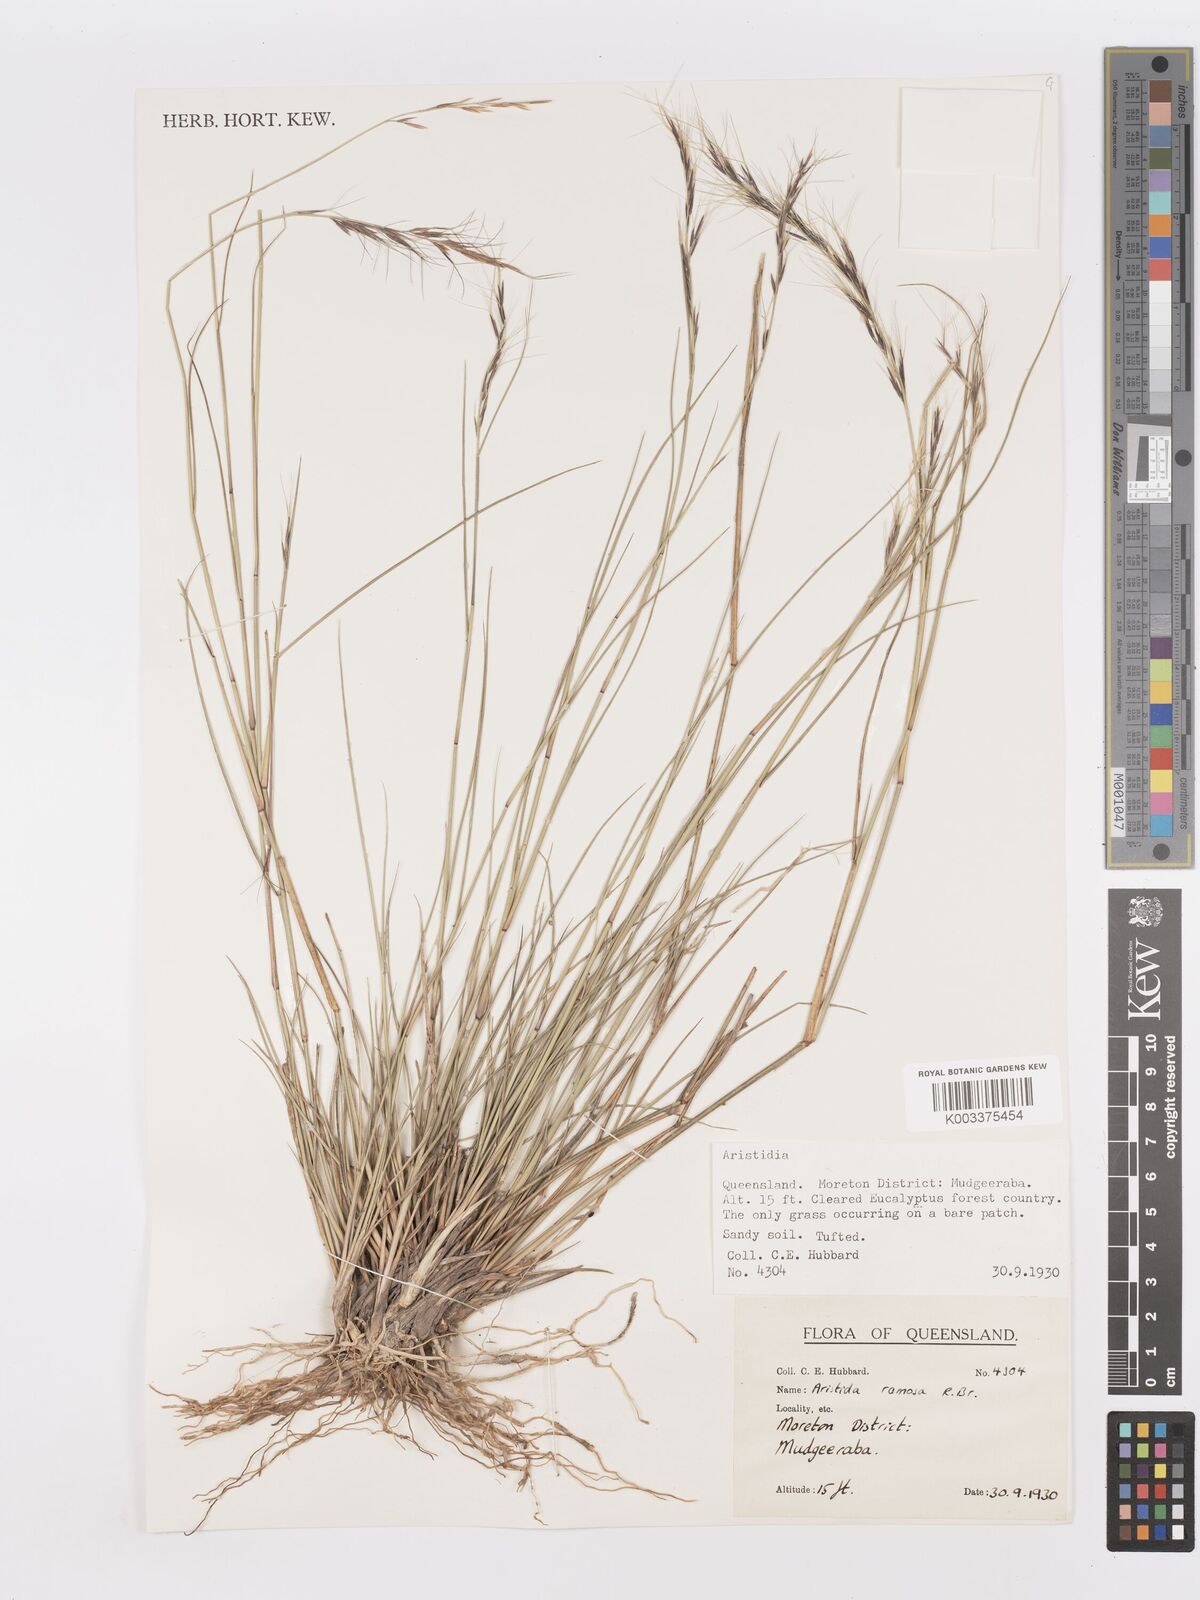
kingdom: Plantae
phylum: Tracheophyta
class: Liliopsida
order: Poales
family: Poaceae
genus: Aristida
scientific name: Aristida ramosa
